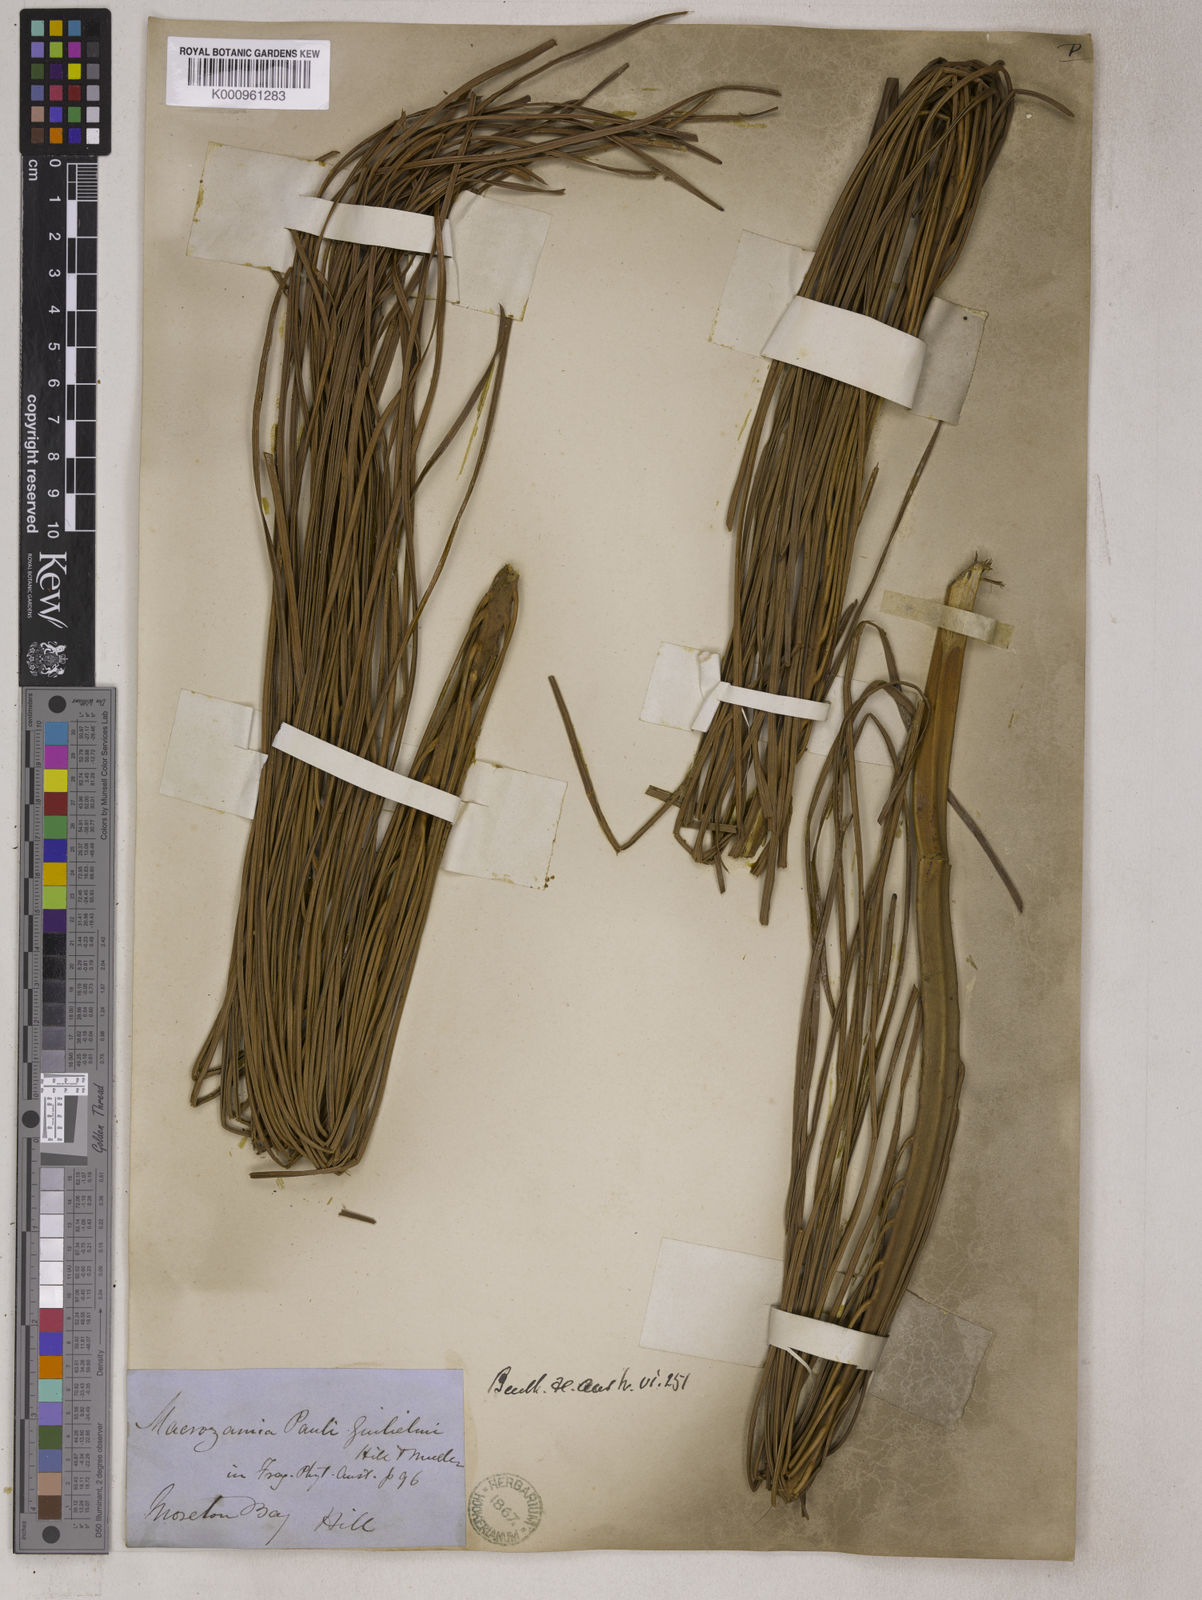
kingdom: Plantae
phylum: Tracheophyta
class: Cycadopsida
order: Cycadales
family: Zamiaceae
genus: Macrozamia
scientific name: Macrozamia pauli-guilielmi
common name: Pineapple zamia
